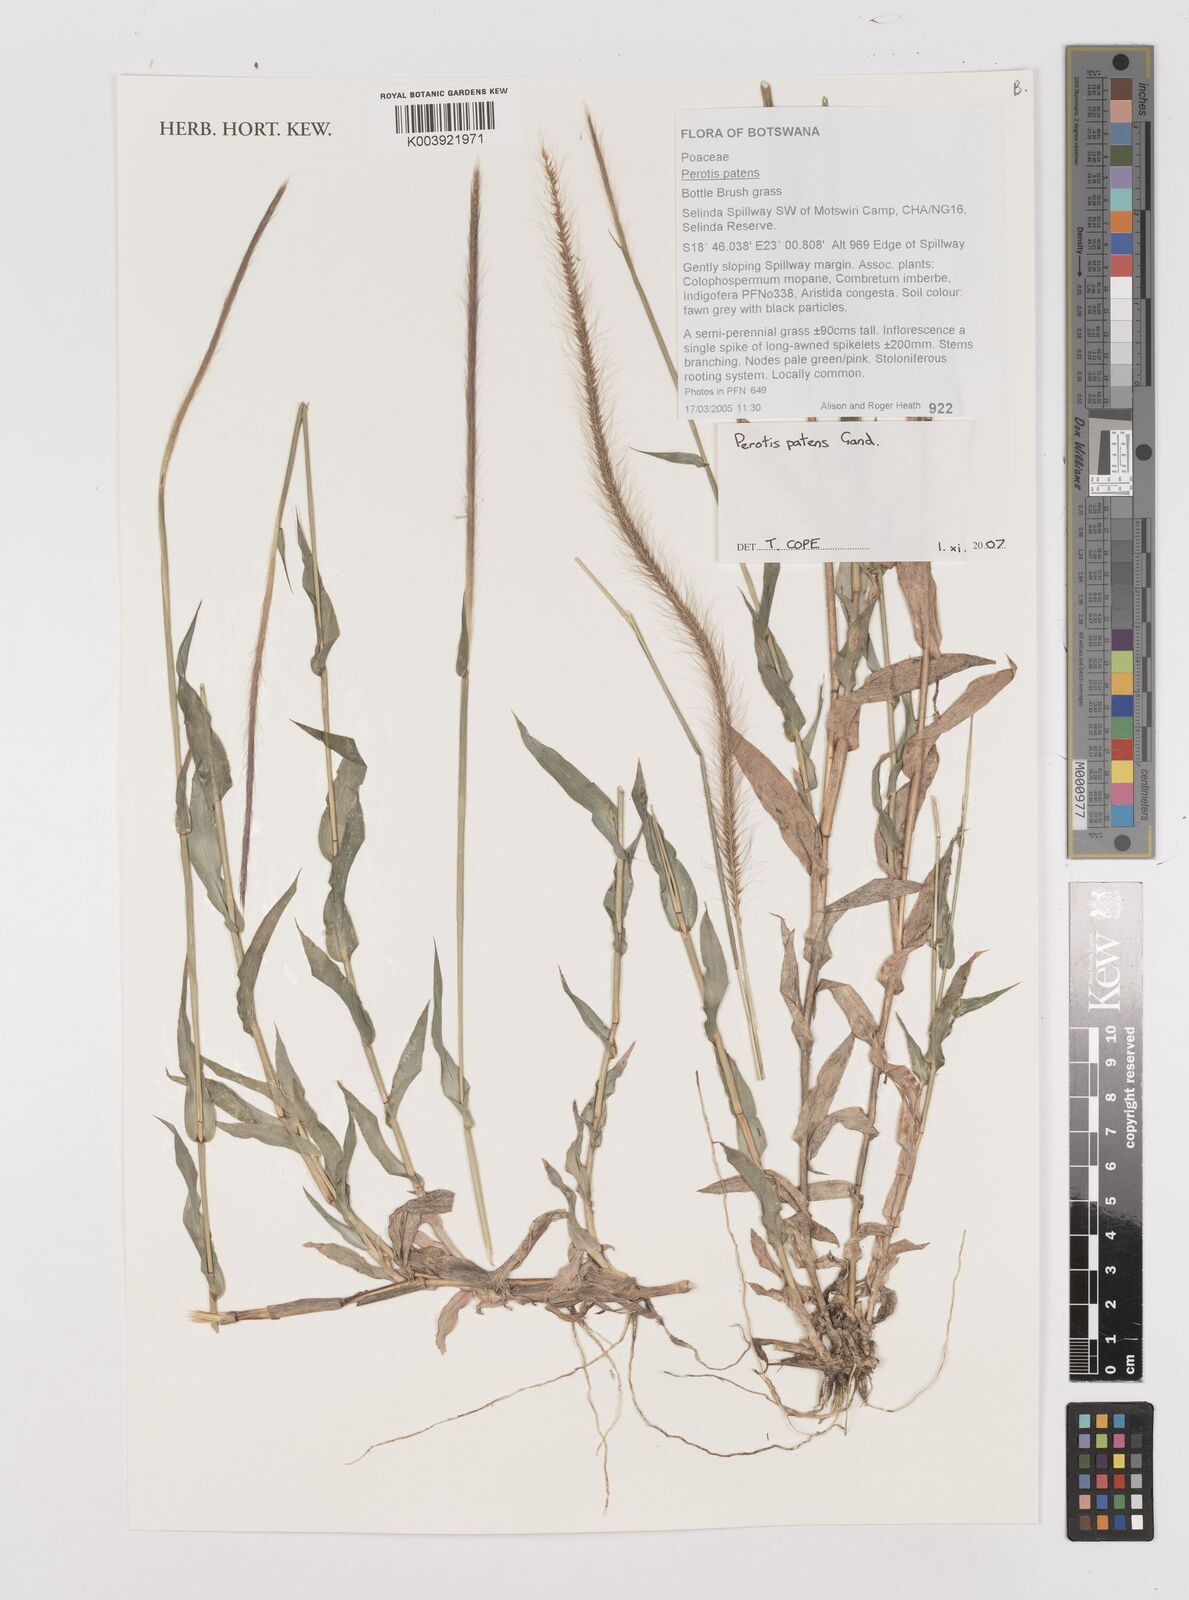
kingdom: Plantae
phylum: Tracheophyta
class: Liliopsida
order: Poales
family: Poaceae
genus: Perotis
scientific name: Perotis patens
